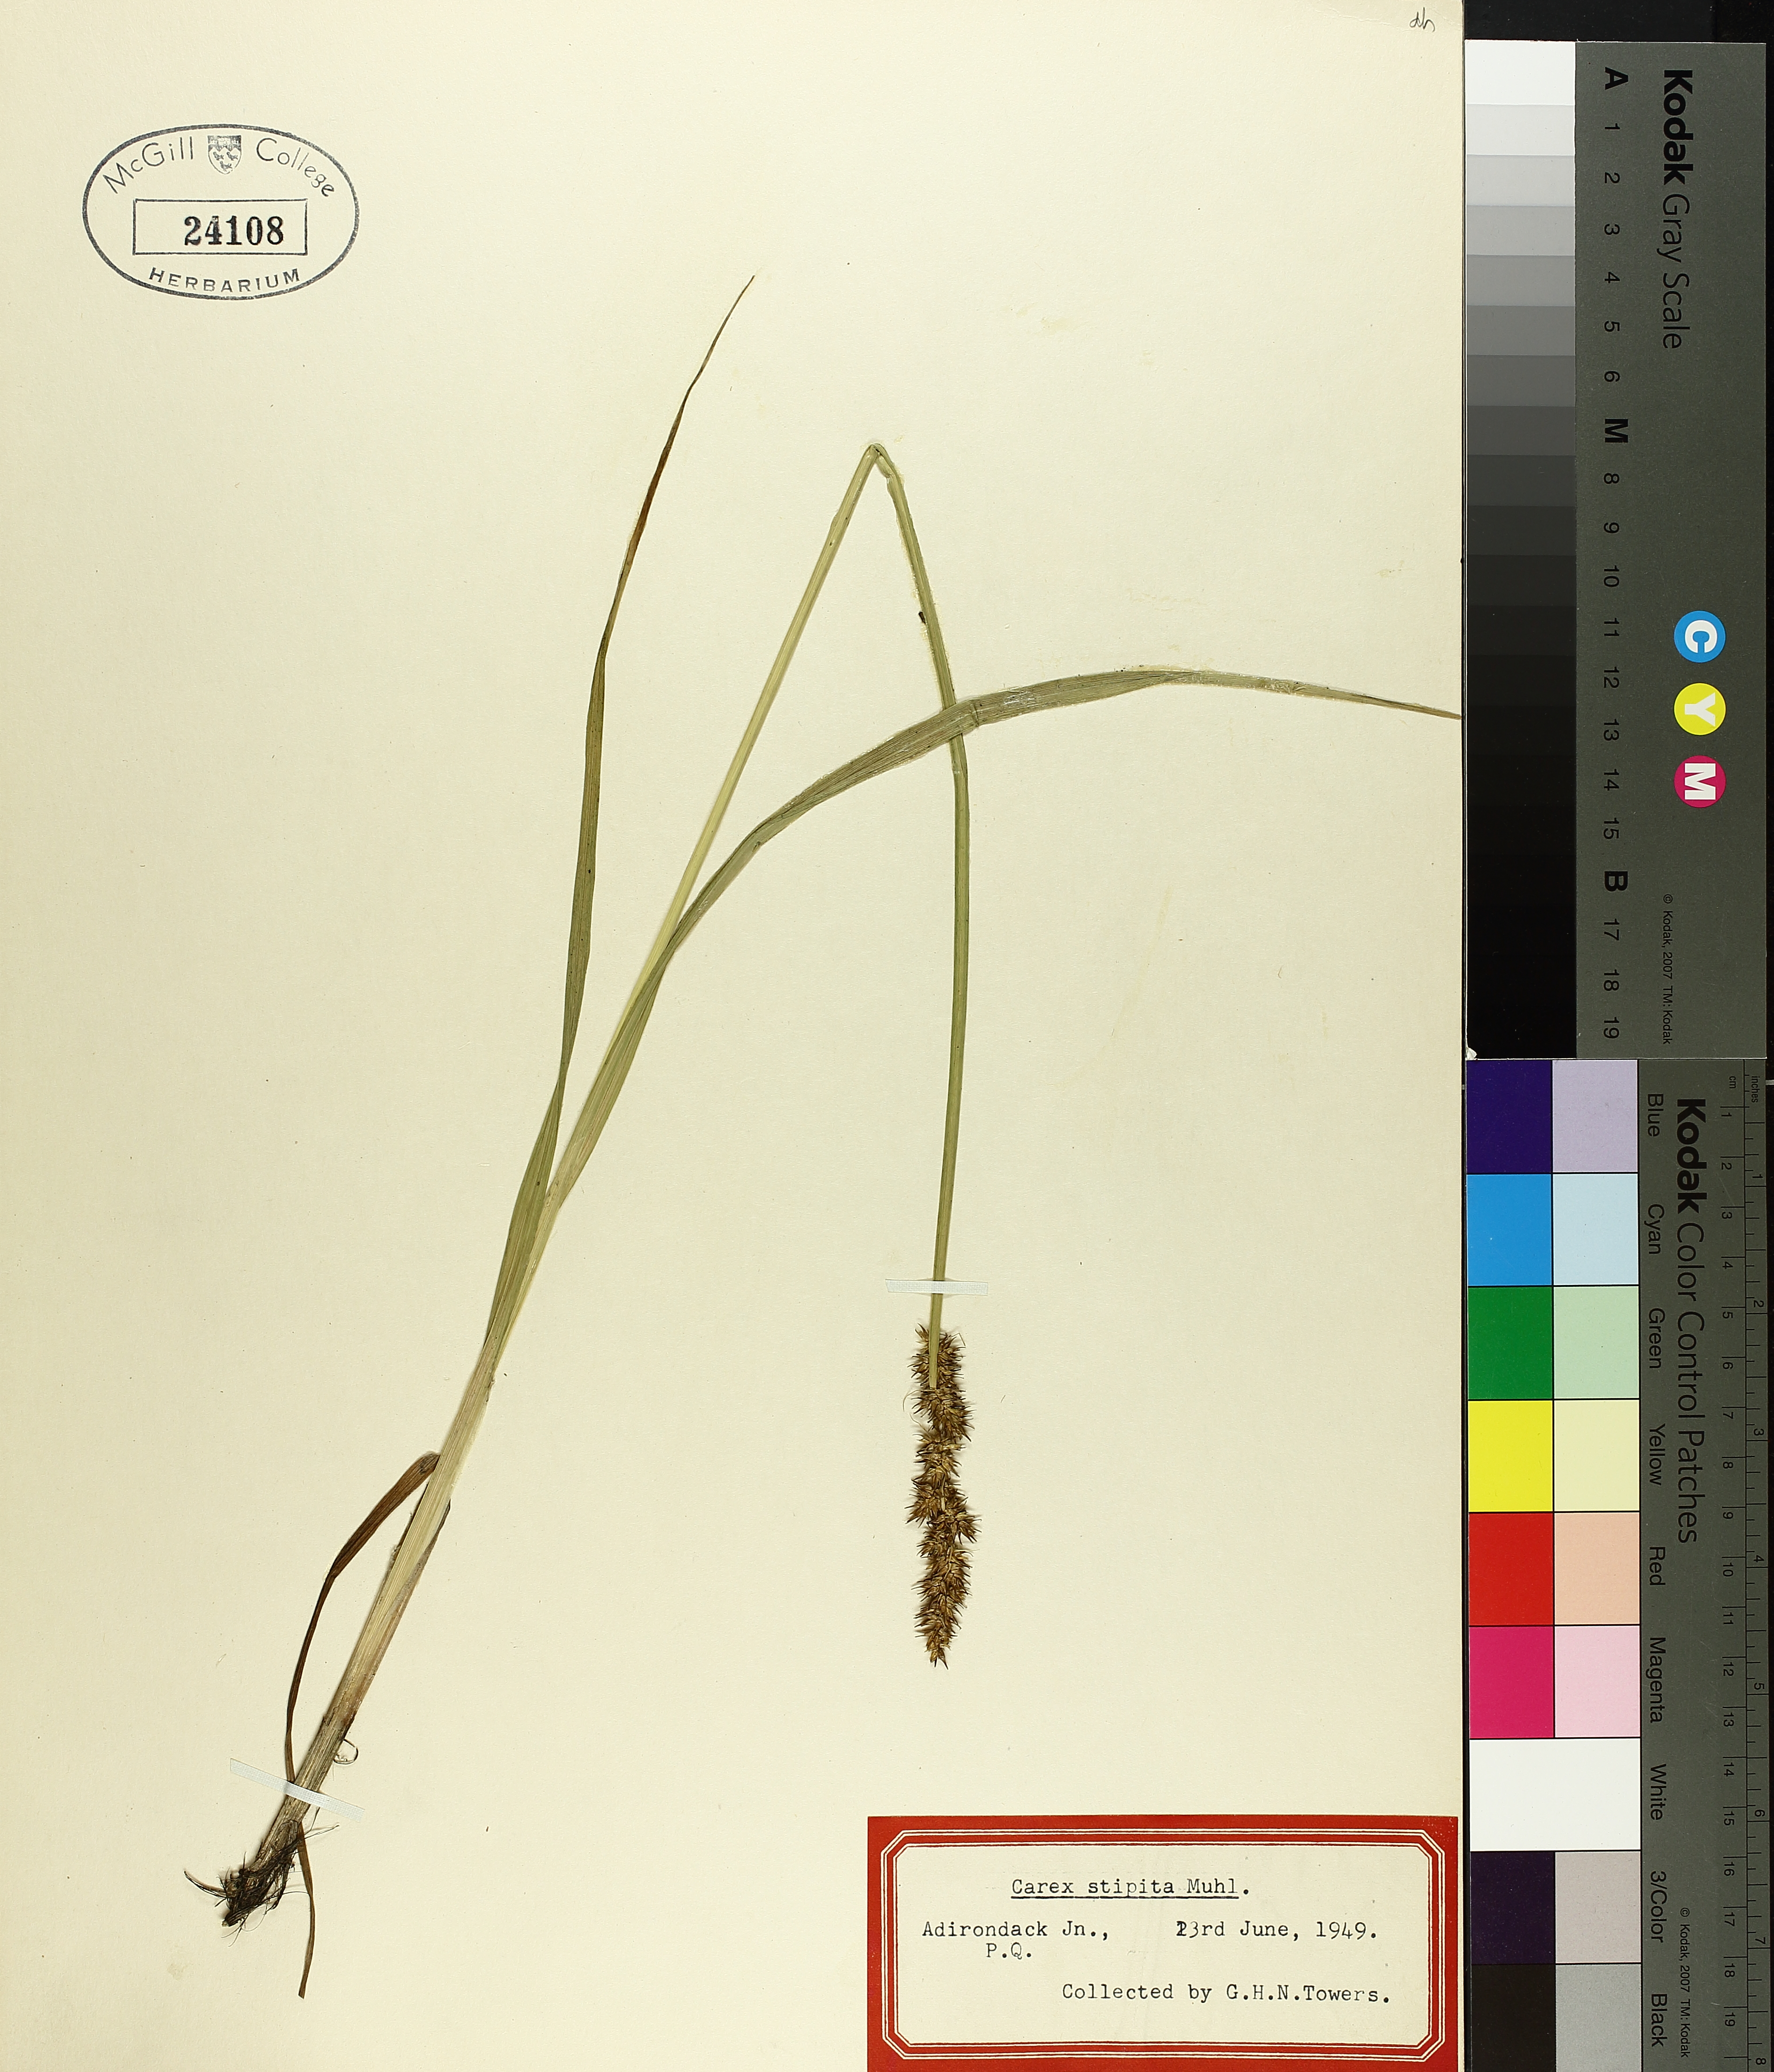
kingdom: Plantae
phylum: Tracheophyta
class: Liliopsida
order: Poales
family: Cyperaceae
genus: Carex
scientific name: Carex stipata
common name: Awl-fruited sedge
